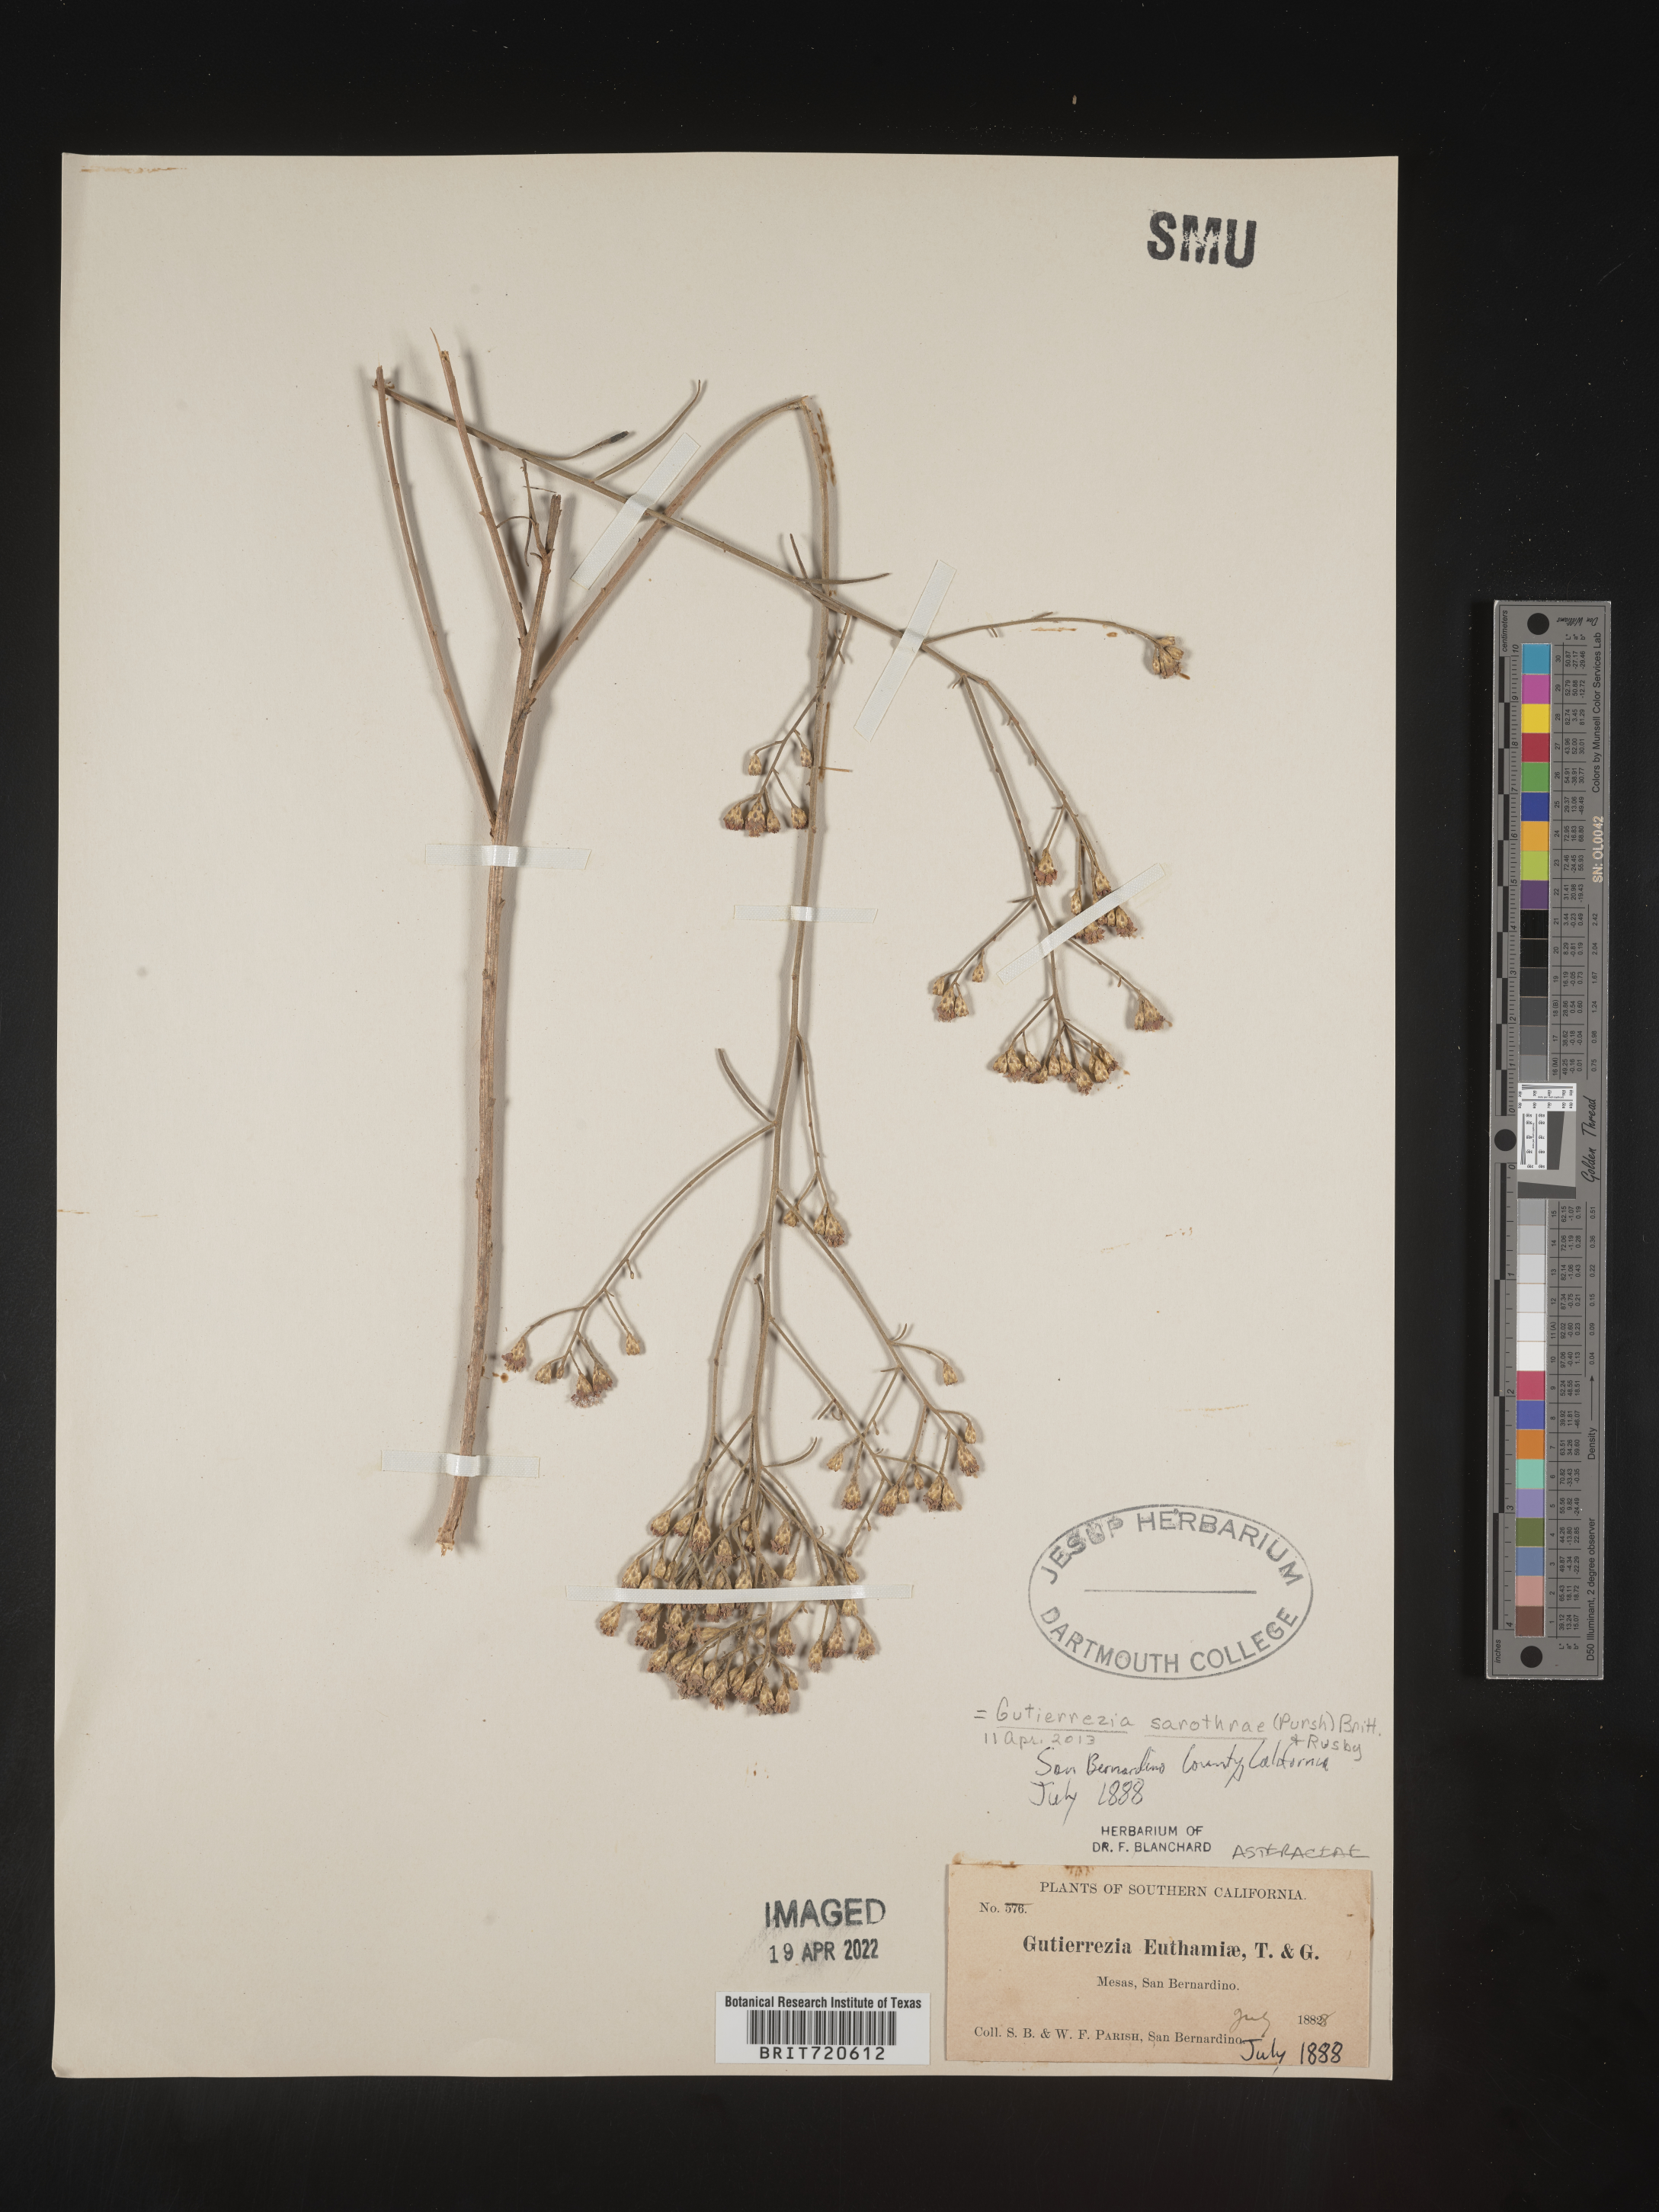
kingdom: Plantae
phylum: Tracheophyta
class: Magnoliopsida
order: Asterales
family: Asteraceae
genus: Gutierrezia
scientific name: Gutierrezia sarothrae
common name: Broom snakeweed
